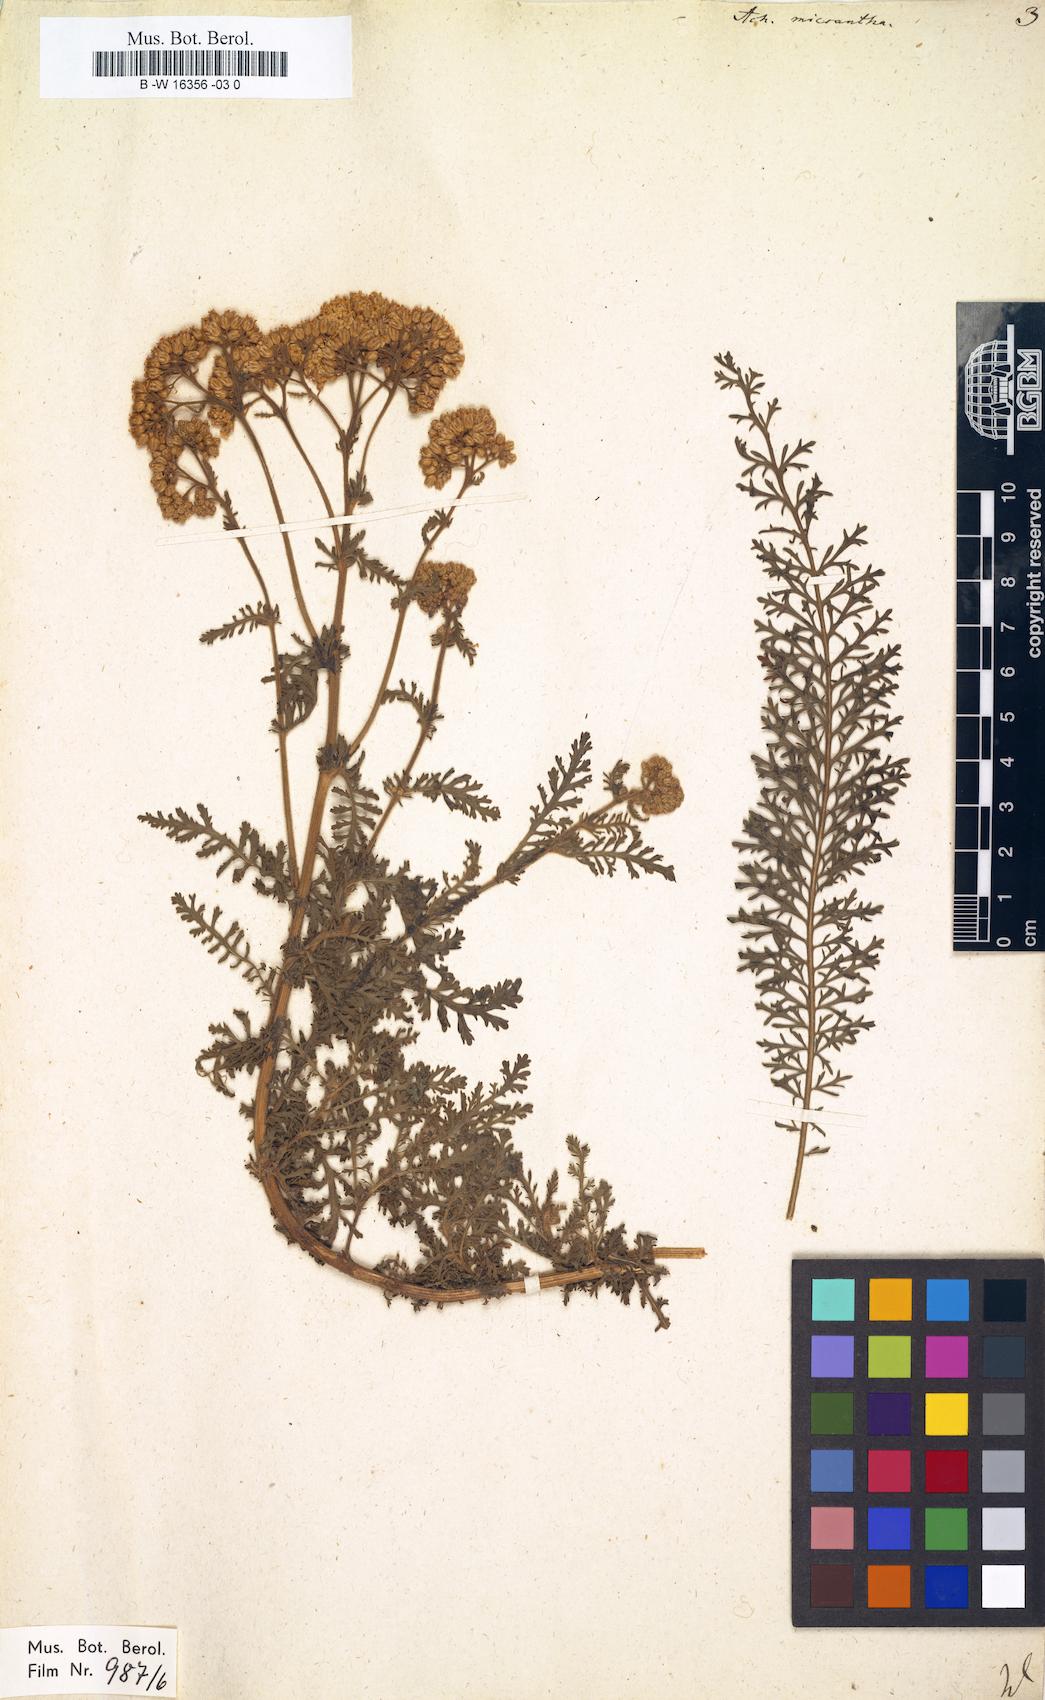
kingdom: Plantae
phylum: Tracheophyta
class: Magnoliopsida
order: Asterales
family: Asteraceae
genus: Achillea
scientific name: Achillea arabica
